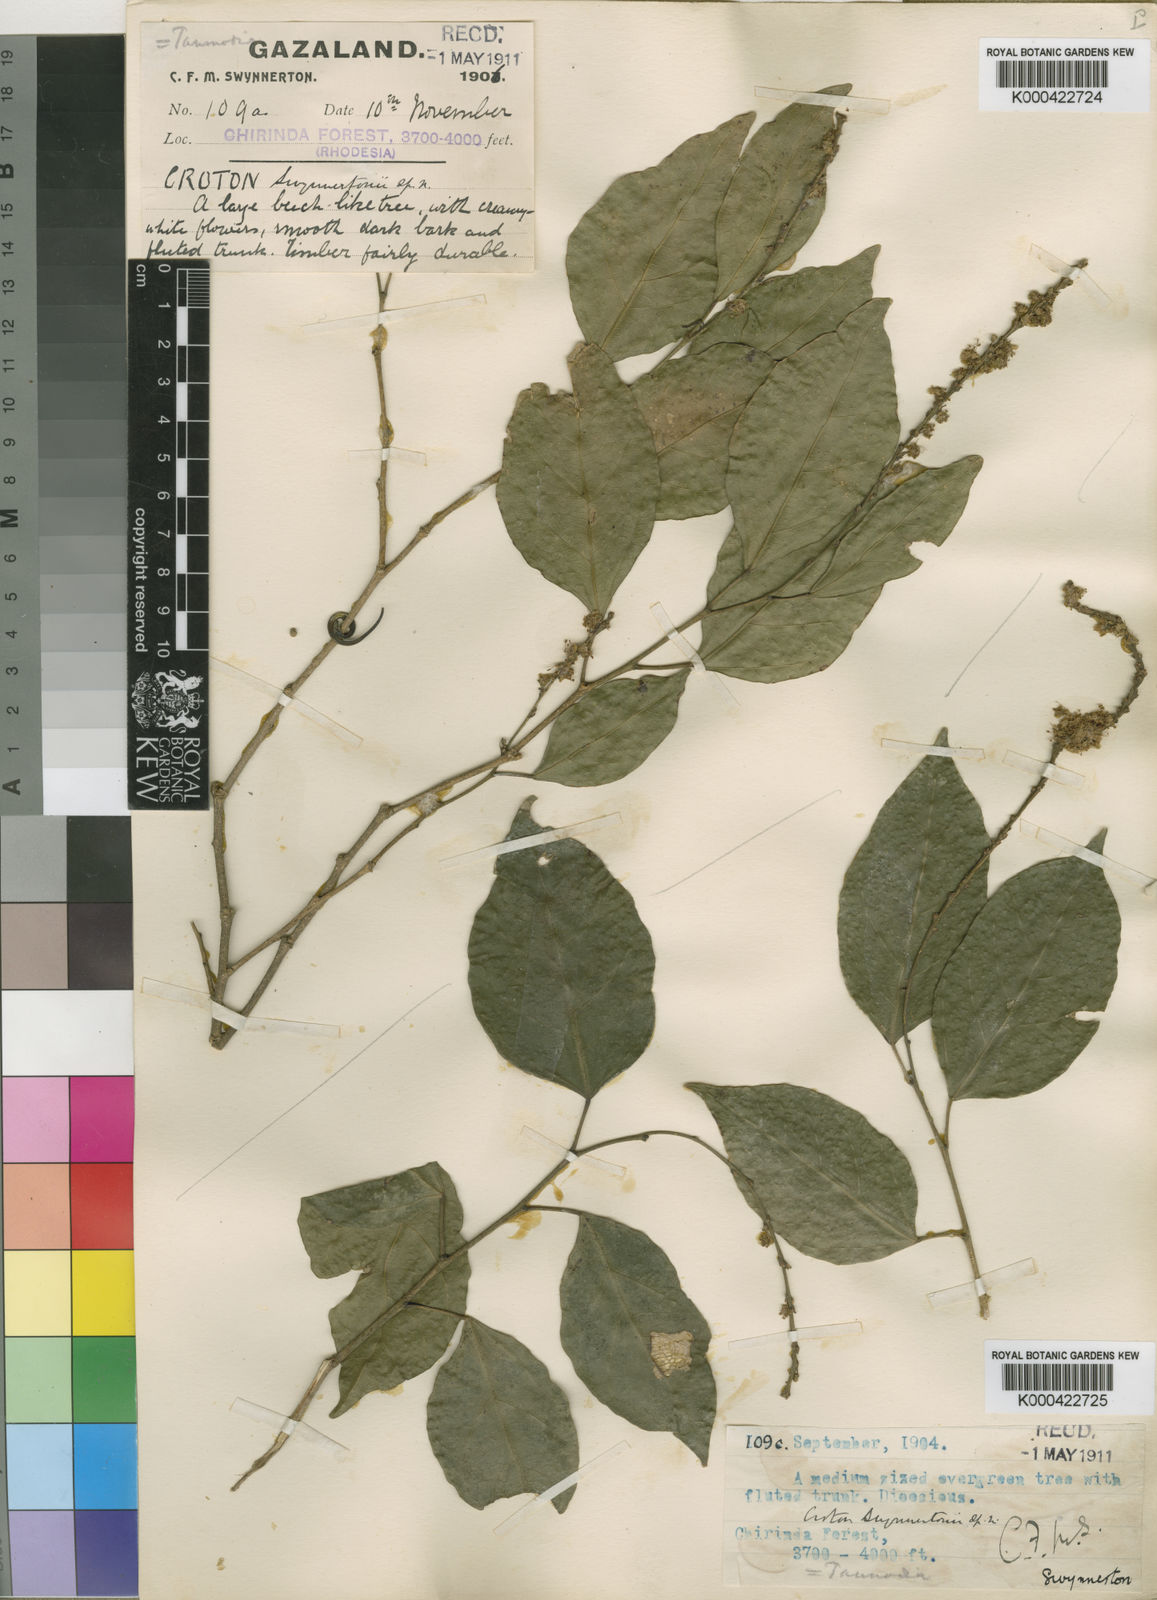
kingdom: Plantae
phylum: Tracheophyta
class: Magnoliopsida
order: Malpighiales
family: Euphorbiaceae
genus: Tannodia
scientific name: Tannodia swynnertonii
